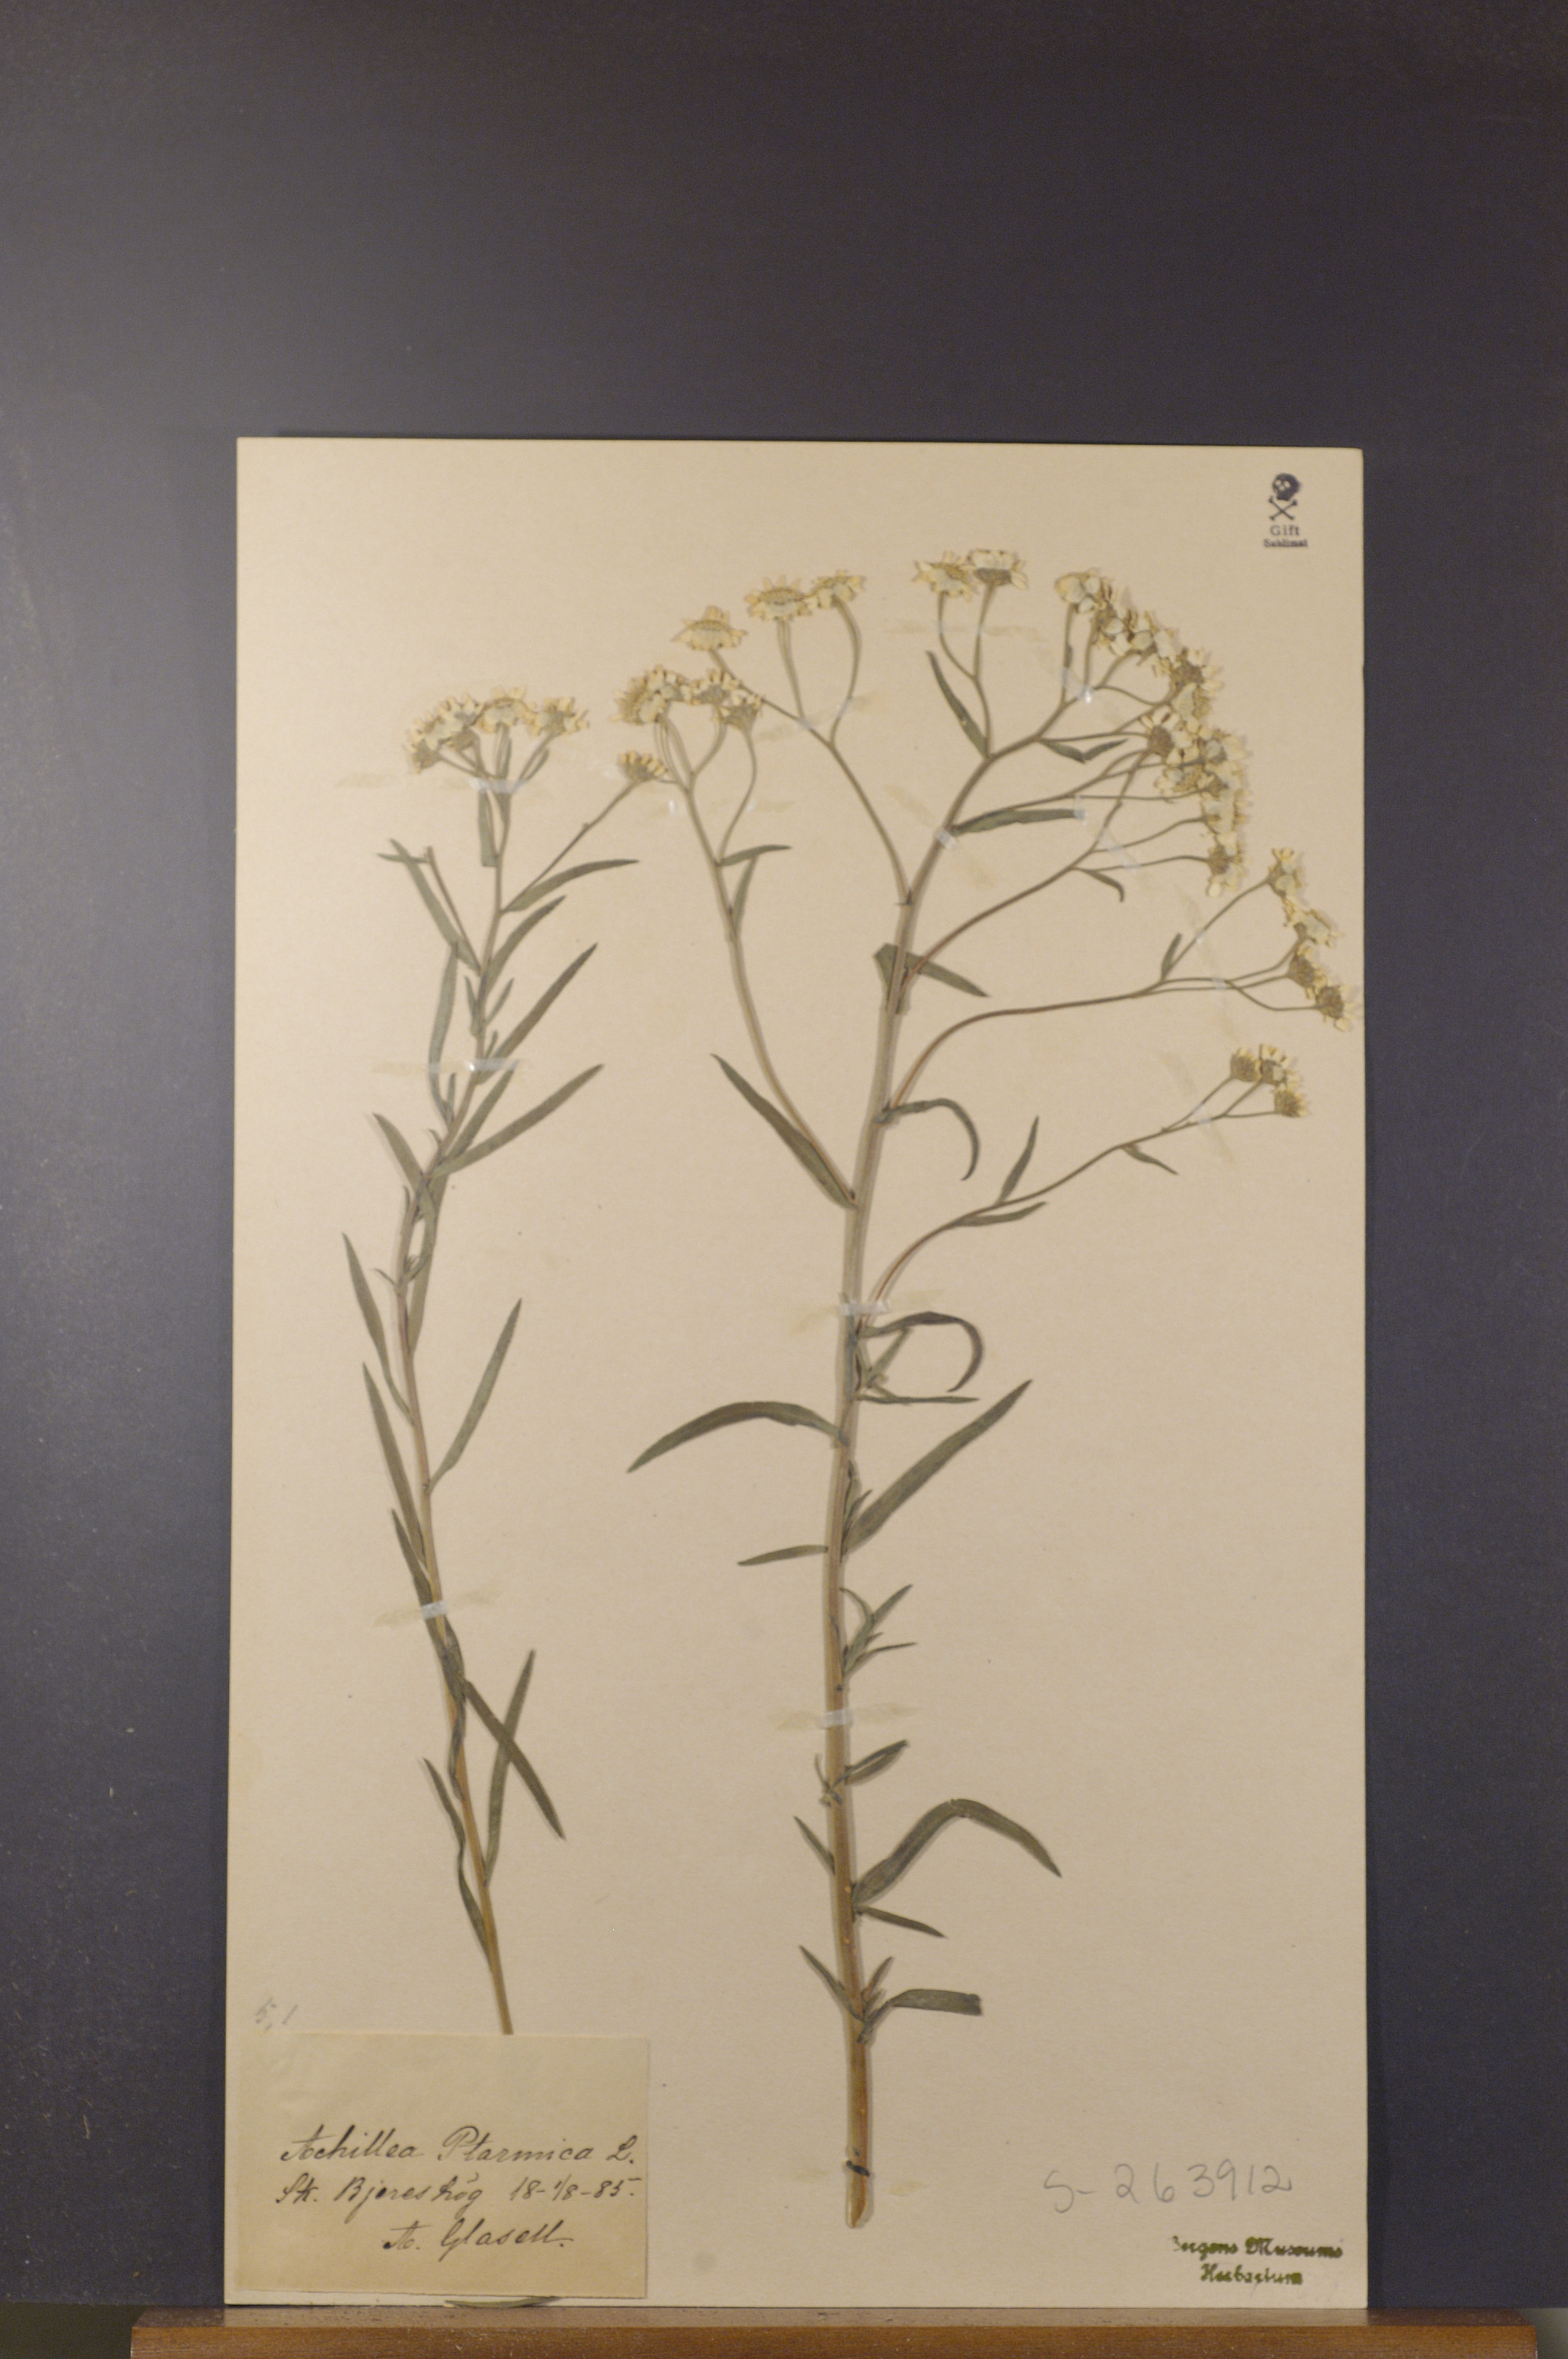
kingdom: Plantae
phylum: Tracheophyta
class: Magnoliopsida
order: Asterales
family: Asteraceae
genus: Achillea
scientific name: Achillea ptarmica
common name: Sneezeweed
